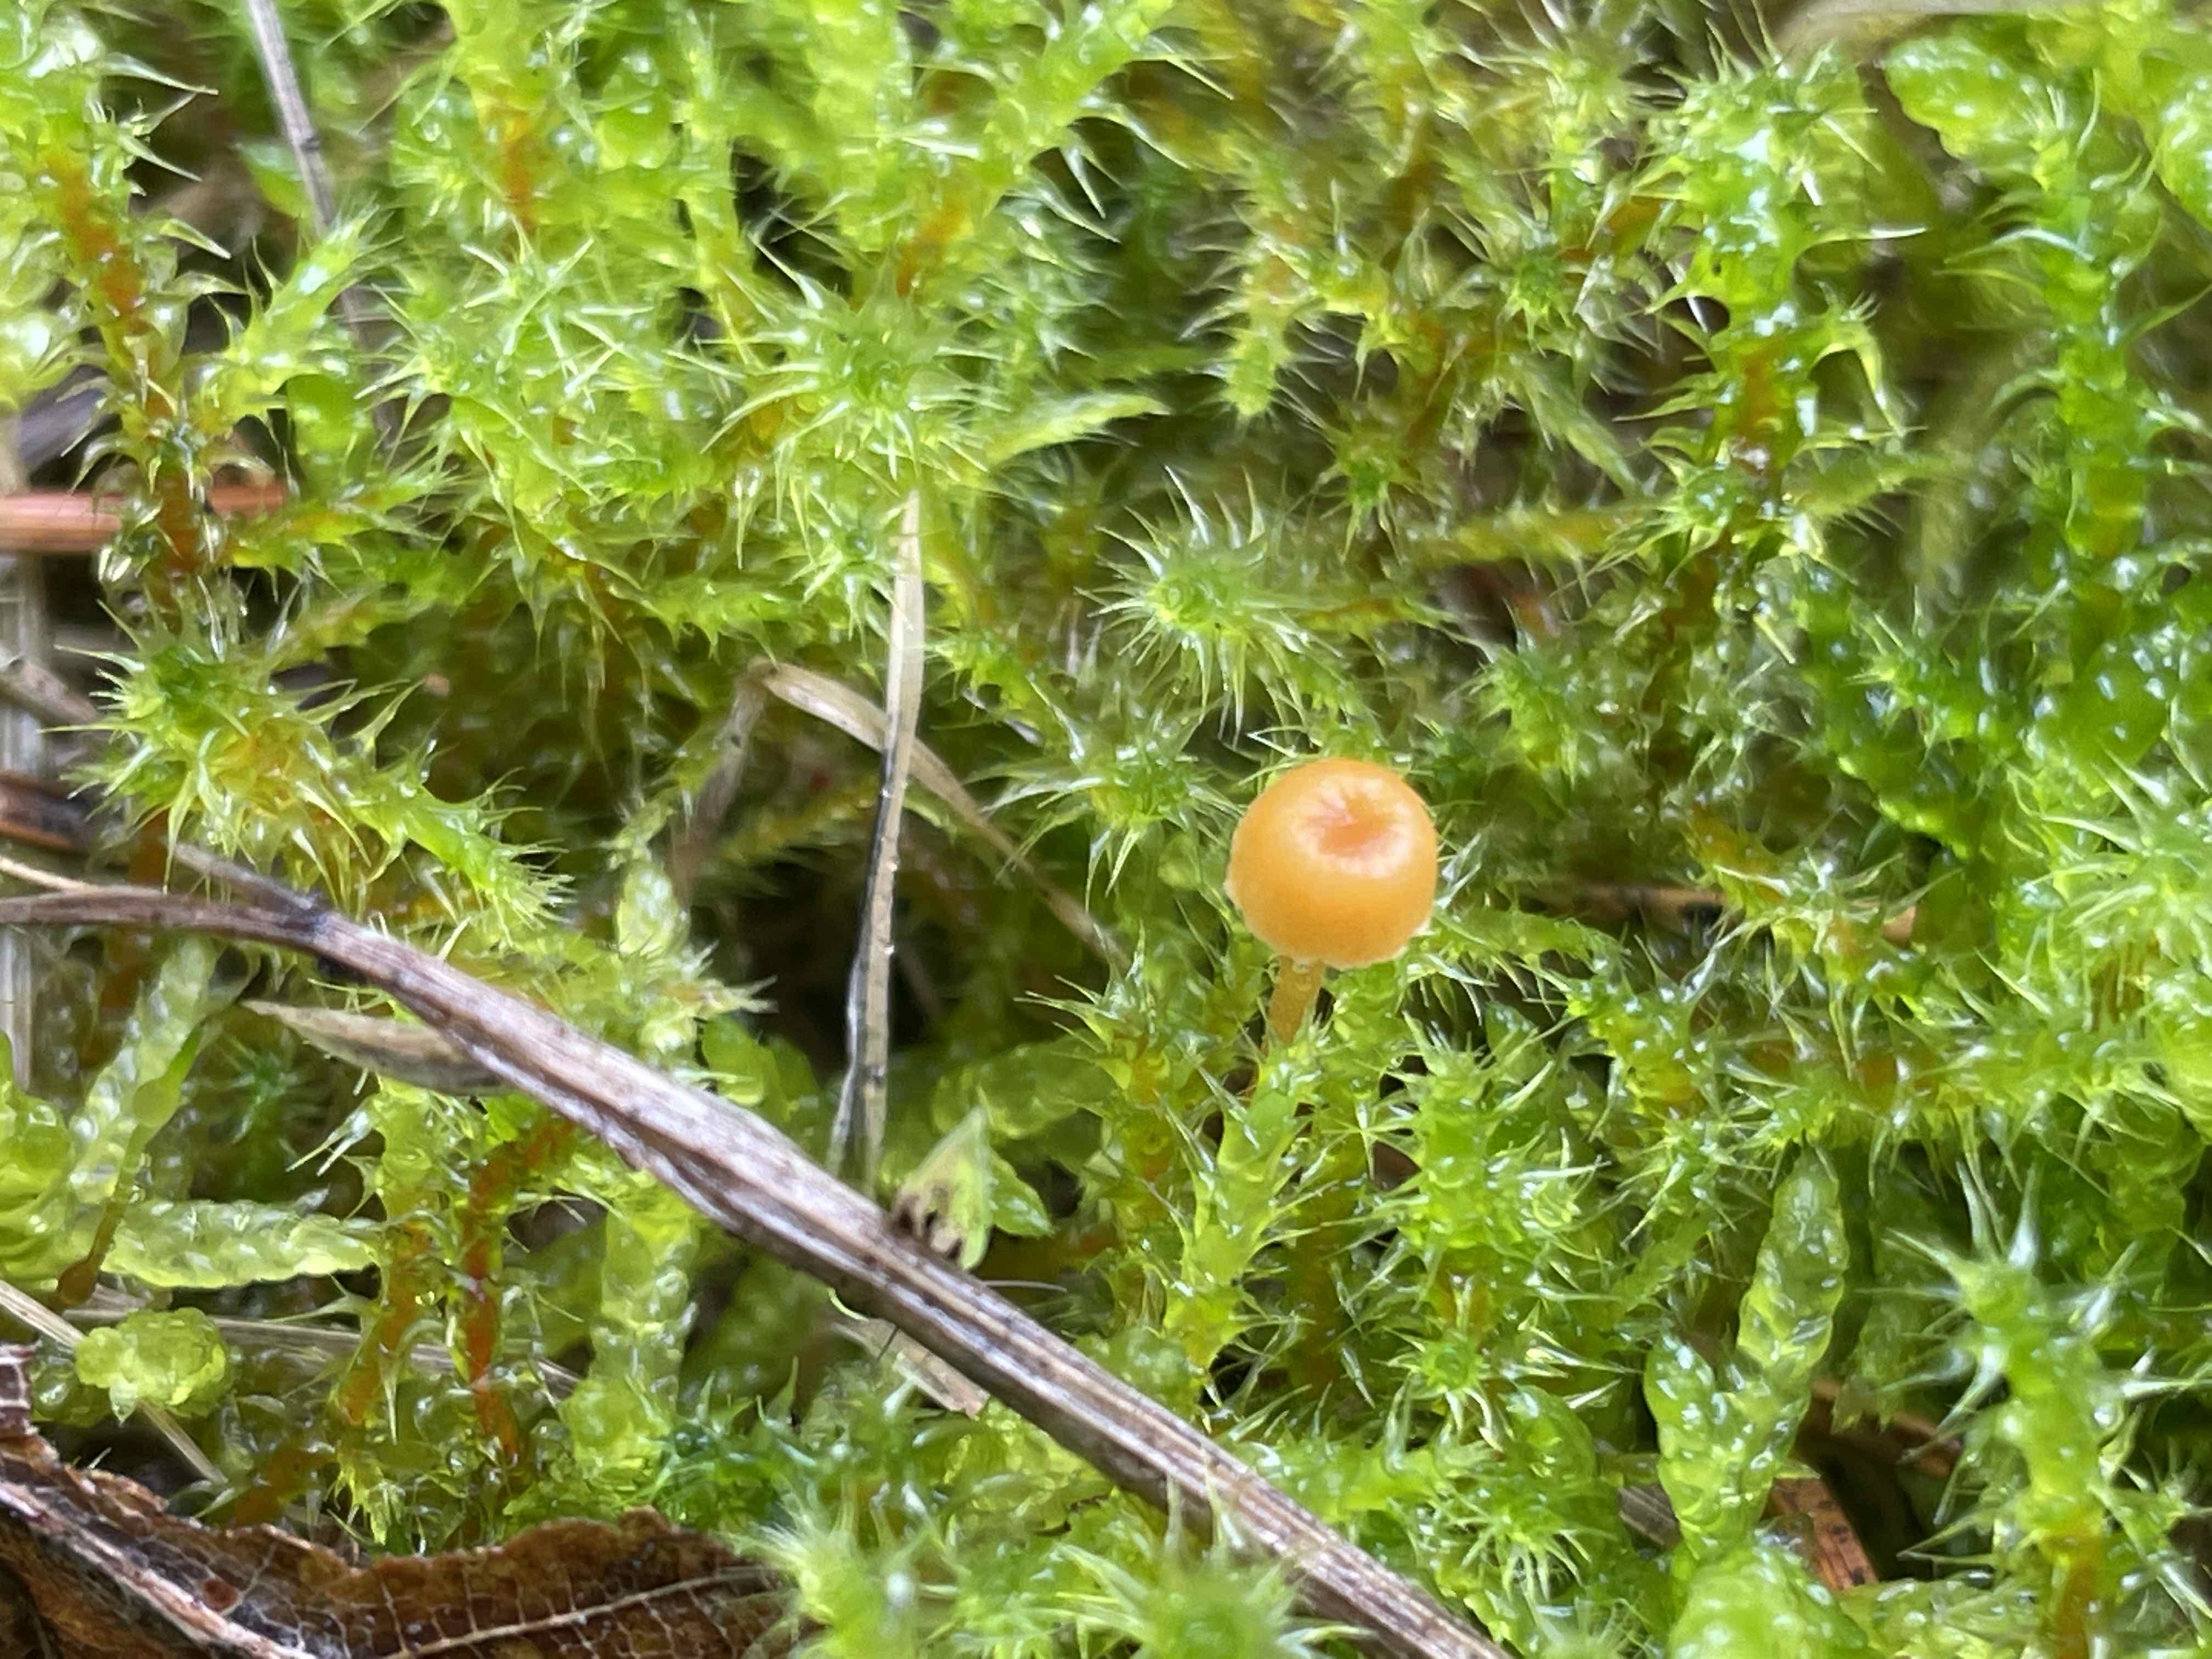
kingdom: Fungi
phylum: Basidiomycota
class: Agaricomycetes
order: Hymenochaetales
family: Rickenellaceae
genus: Rickenella
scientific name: Rickenella fibula
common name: orange mosnavlehat
